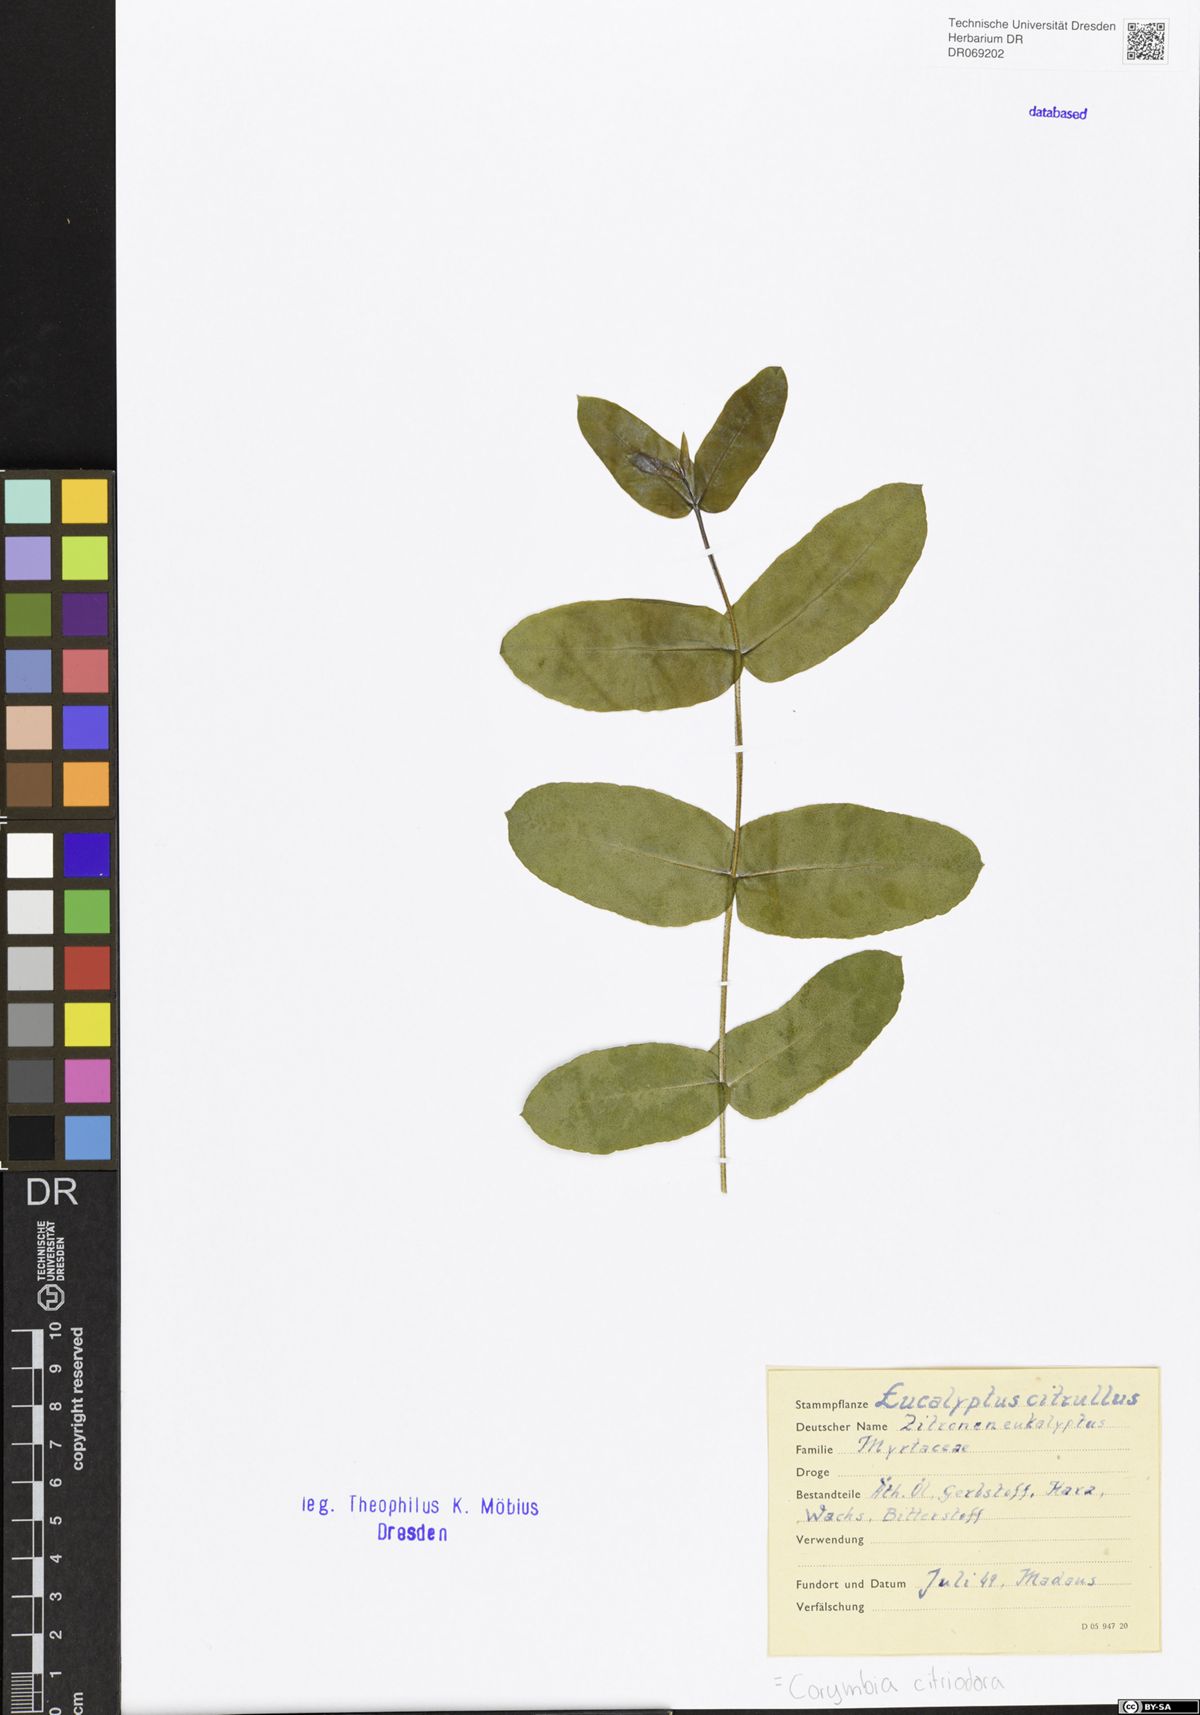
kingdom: Plantae
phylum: Tracheophyta
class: Magnoliopsida
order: Myrtales
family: Myrtaceae
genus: Corymbia
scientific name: Corymbia citriodora
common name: Lemonscented gum
